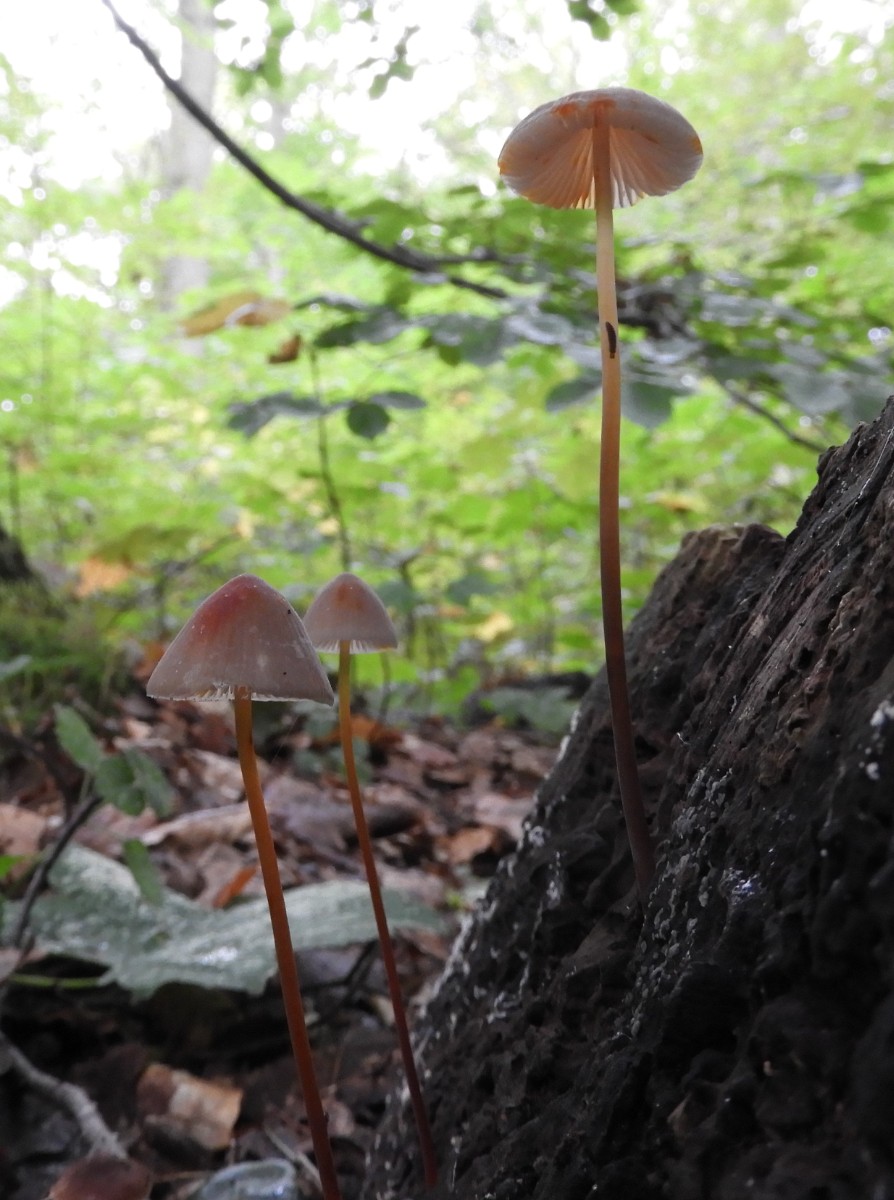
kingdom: Fungi
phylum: Basidiomycota
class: Agaricomycetes
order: Agaricales
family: Mycenaceae
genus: Mycena
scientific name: Mycena crocata
